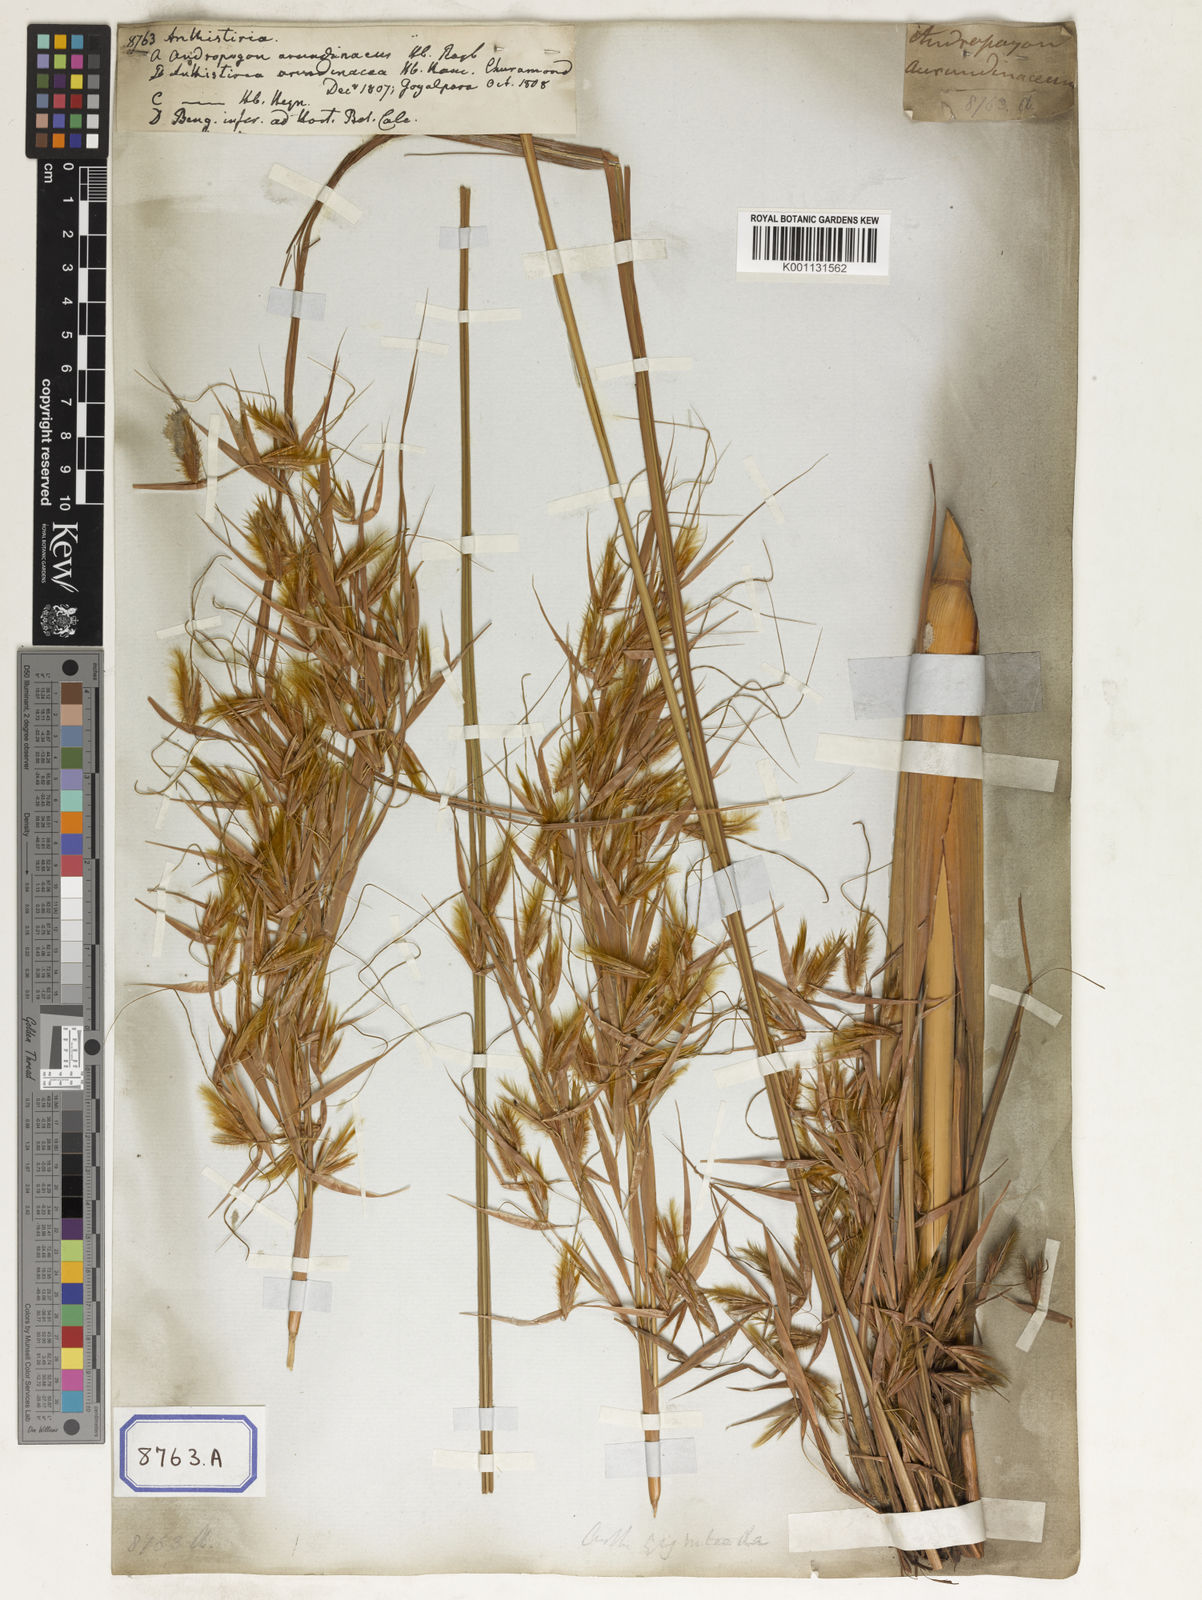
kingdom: Plantae
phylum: Tracheophyta
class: Liliopsida
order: Poales
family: Poaceae
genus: Themeda
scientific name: Themeda
